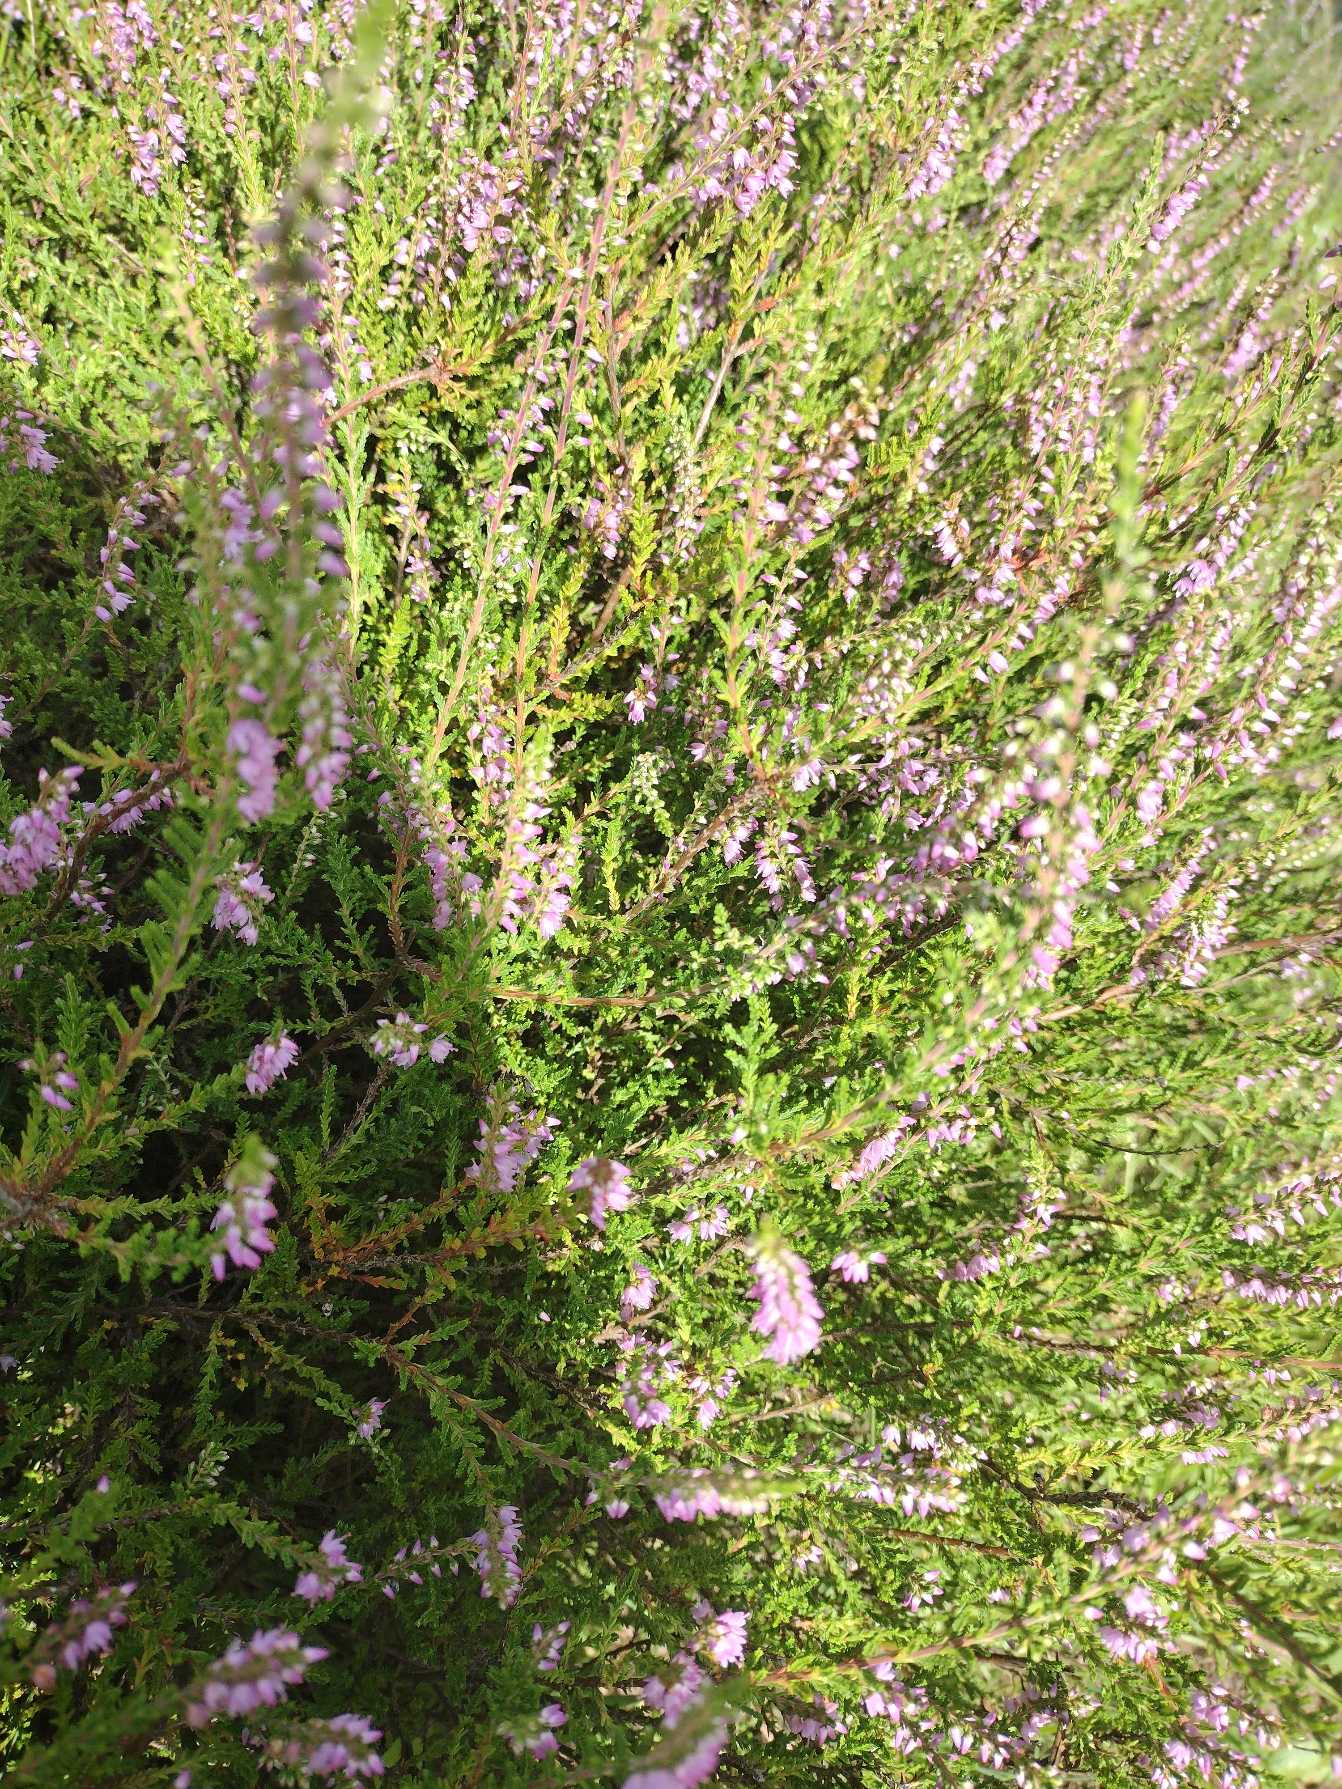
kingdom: Plantae
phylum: Tracheophyta
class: Magnoliopsida
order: Ericales
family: Ericaceae
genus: Calluna
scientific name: Calluna vulgaris
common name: Hedelyng
